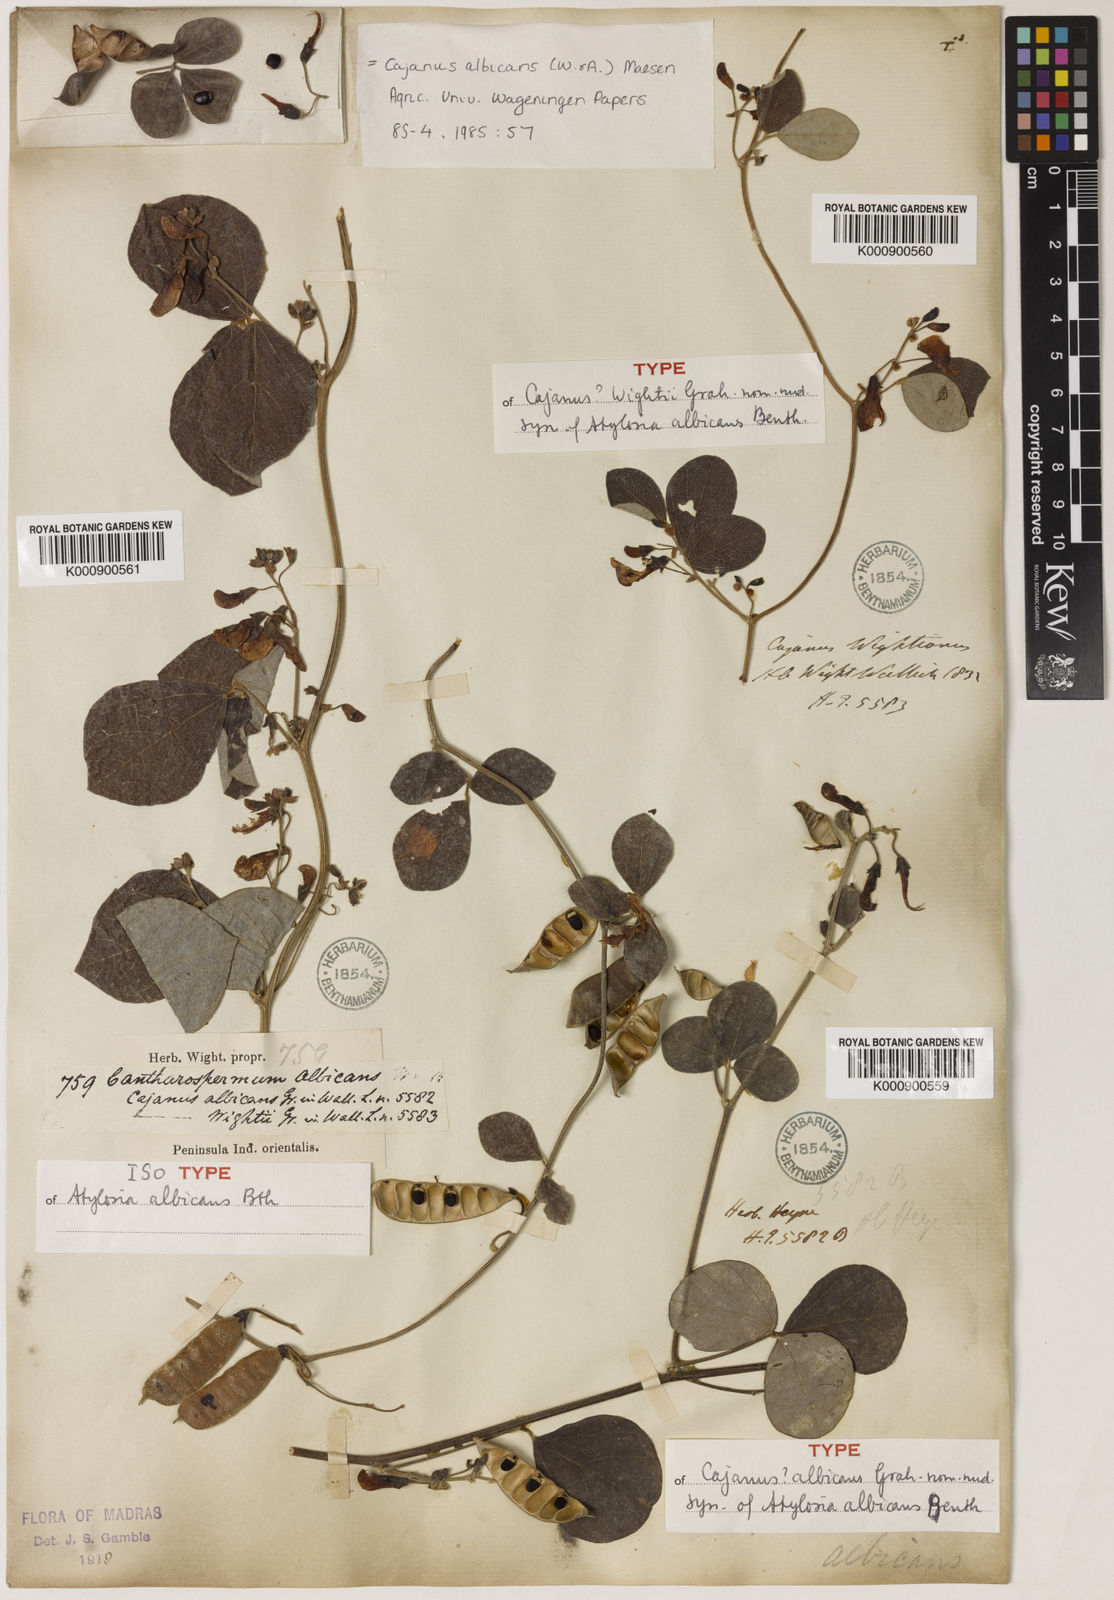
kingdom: Plantae
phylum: Tracheophyta
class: Magnoliopsida
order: Fabales
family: Fabaceae
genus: Cajanus
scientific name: Cajanus albicans
